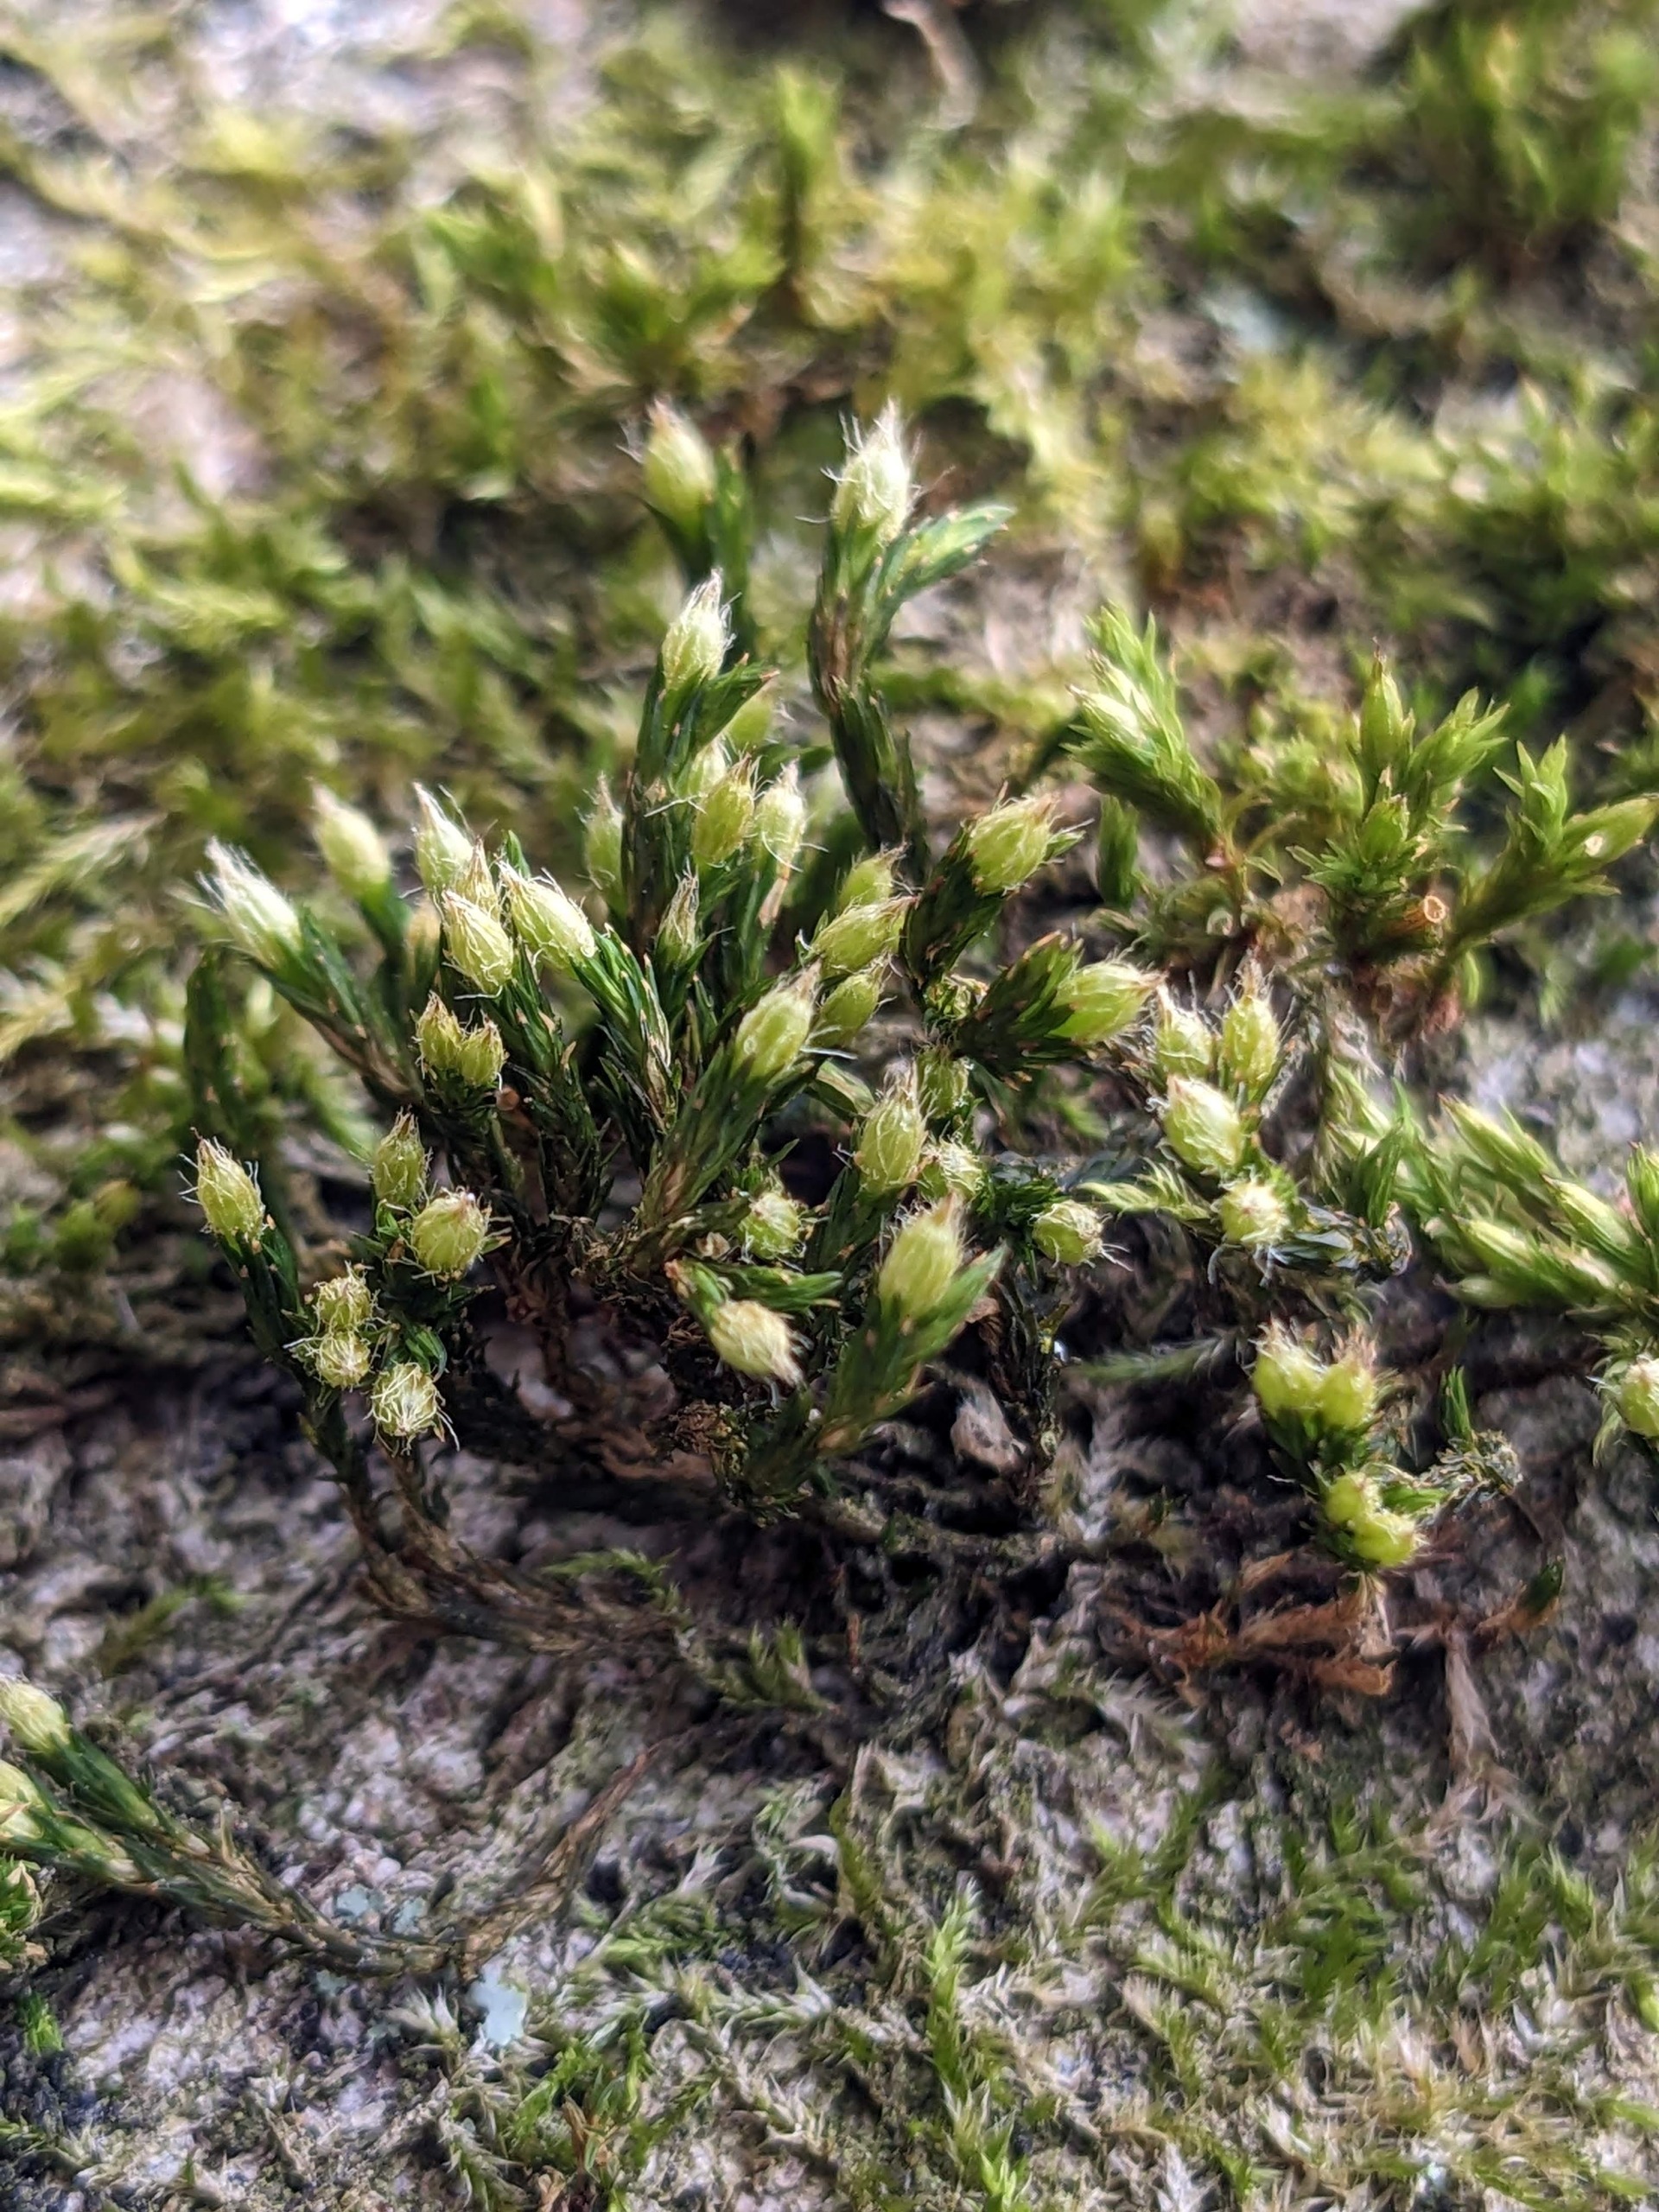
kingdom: Plantae
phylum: Bryophyta
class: Bryopsida
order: Orthotrichales
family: Orthotrichaceae
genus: Lewinskya
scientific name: Lewinskya speciosa
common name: Kortstribet furehætte
